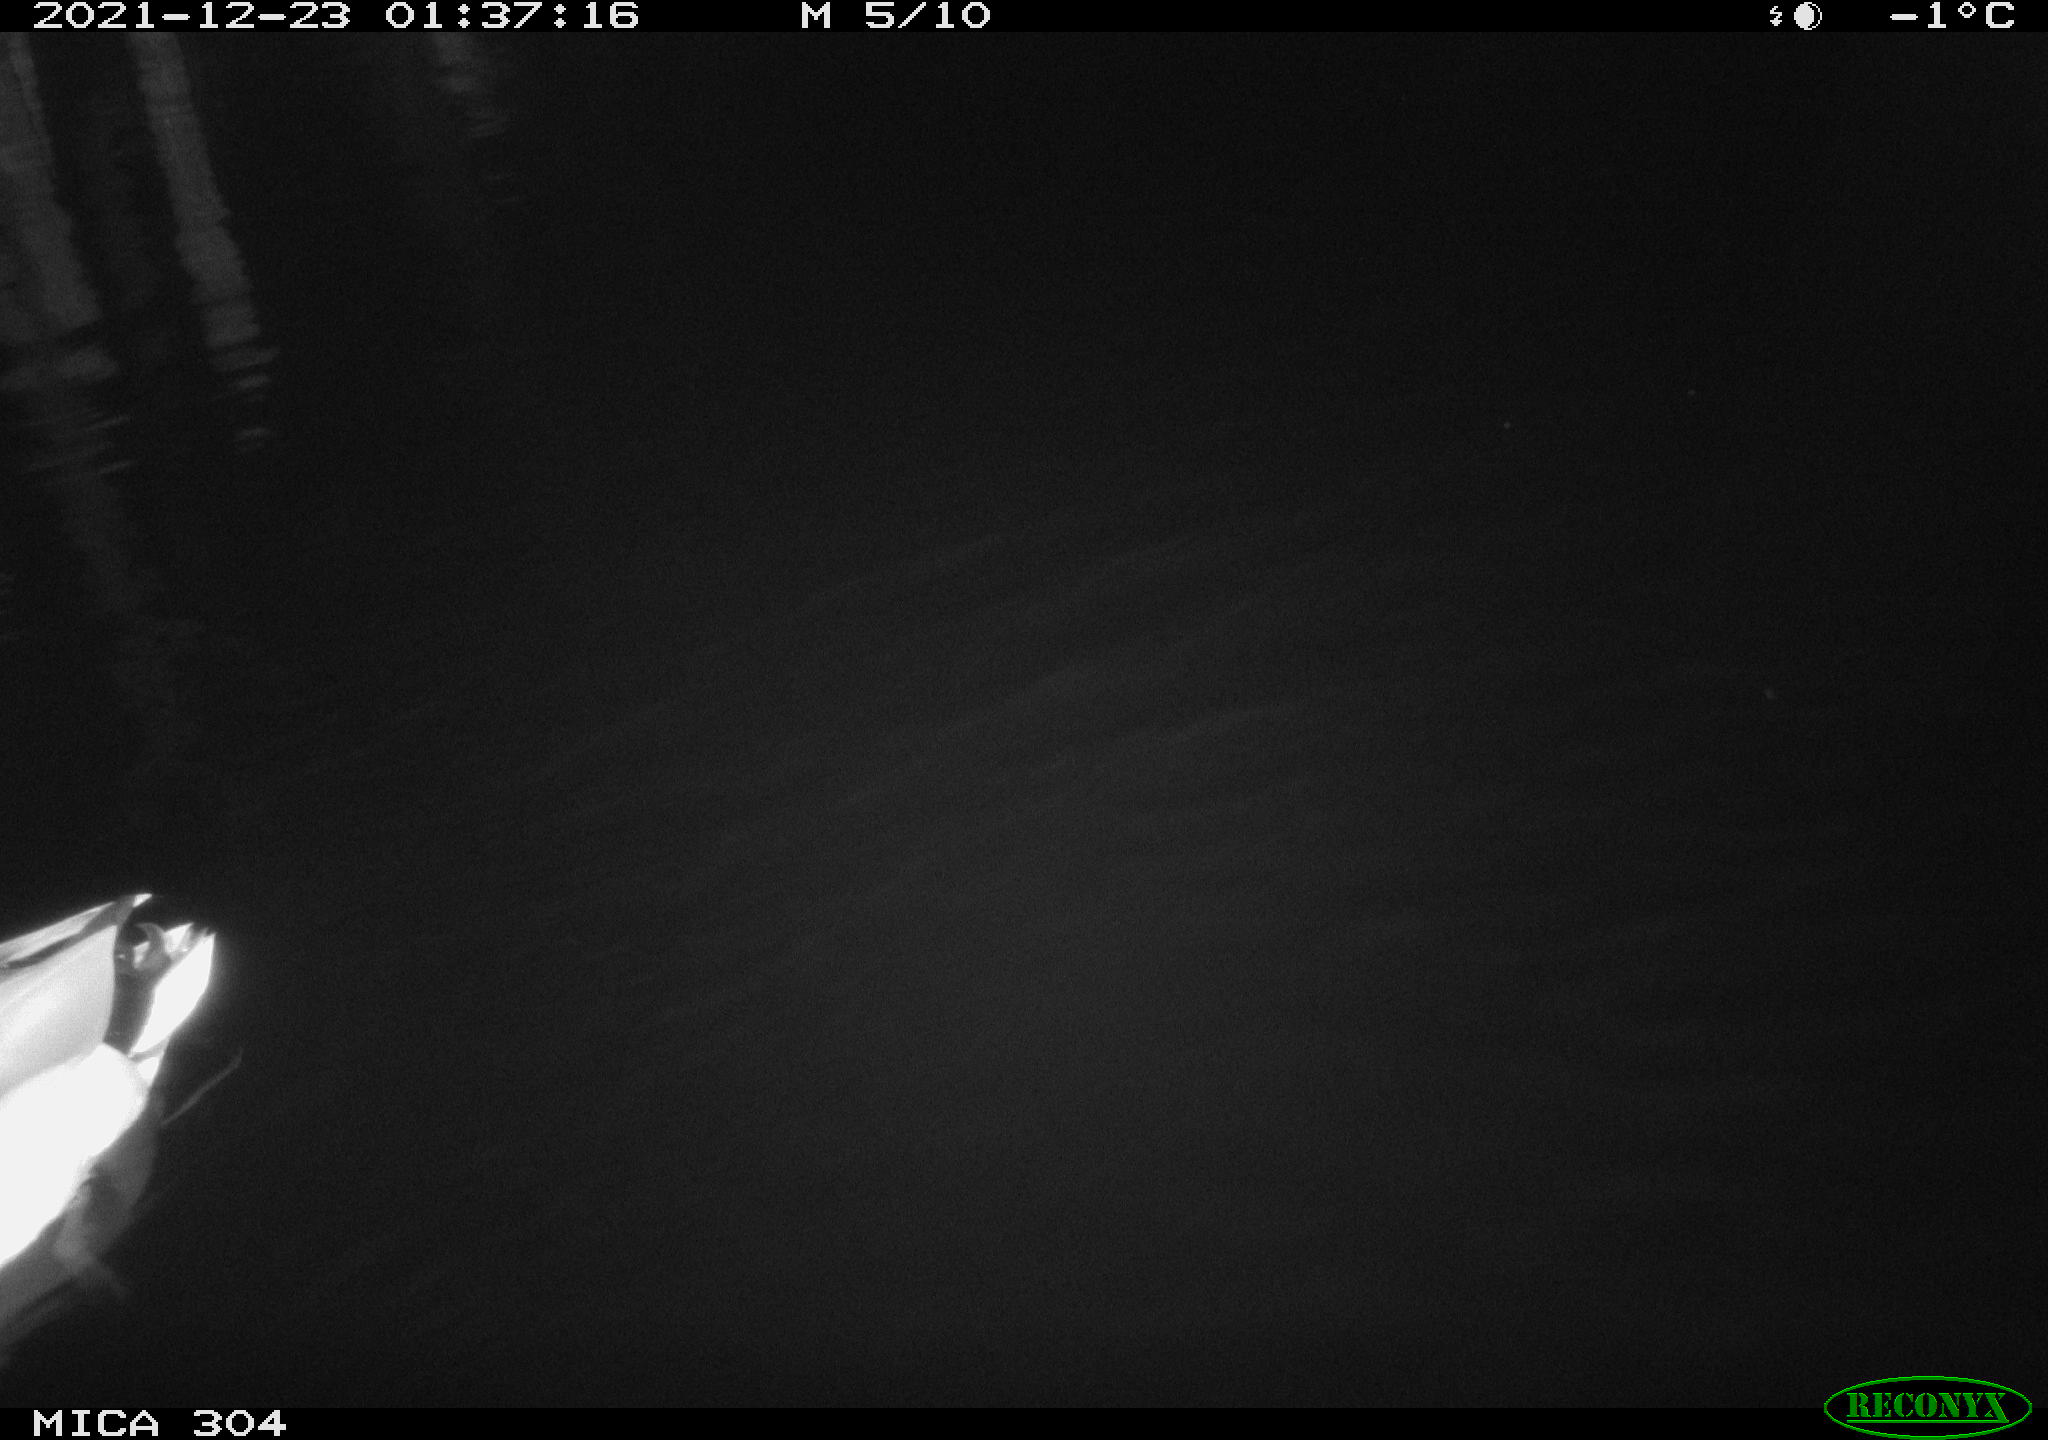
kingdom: Animalia
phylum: Chordata
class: Aves
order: Anseriformes
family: Anatidae
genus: Anas
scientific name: Anas
